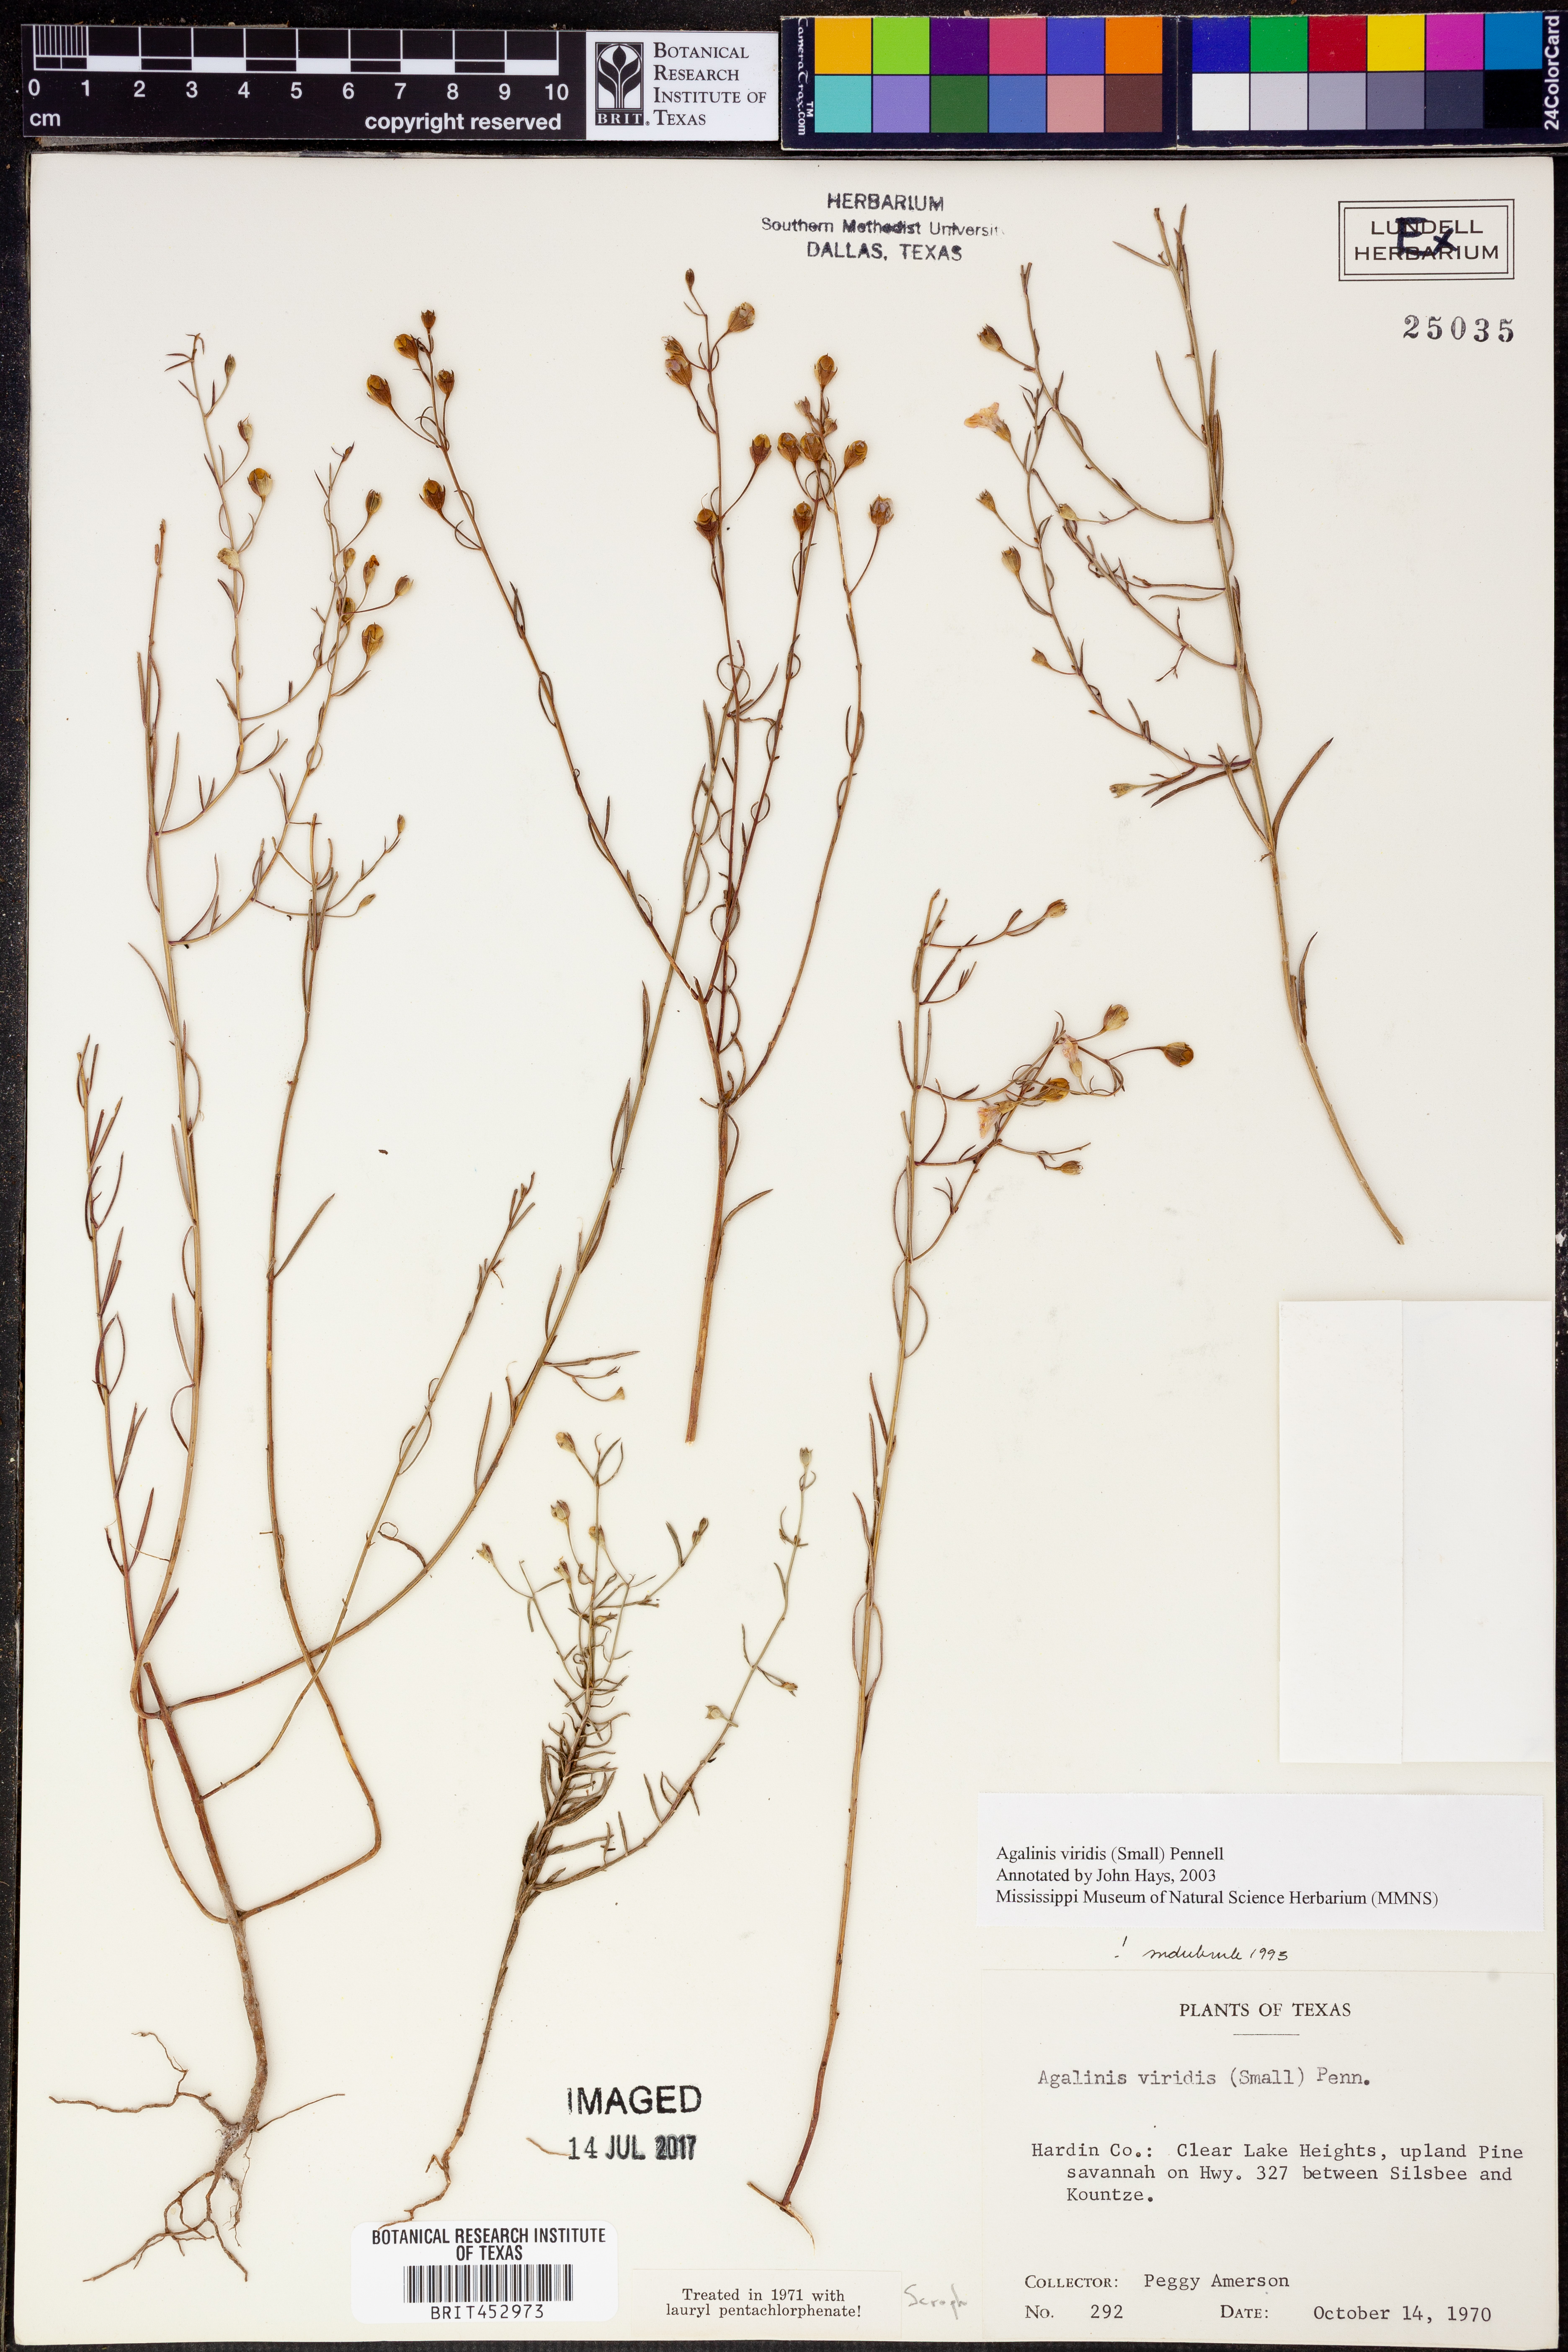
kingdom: Plantae
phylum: Tracheophyta
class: Magnoliopsida
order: Lamiales
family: Orobanchaceae
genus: Agalinis
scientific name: Agalinis viridis
